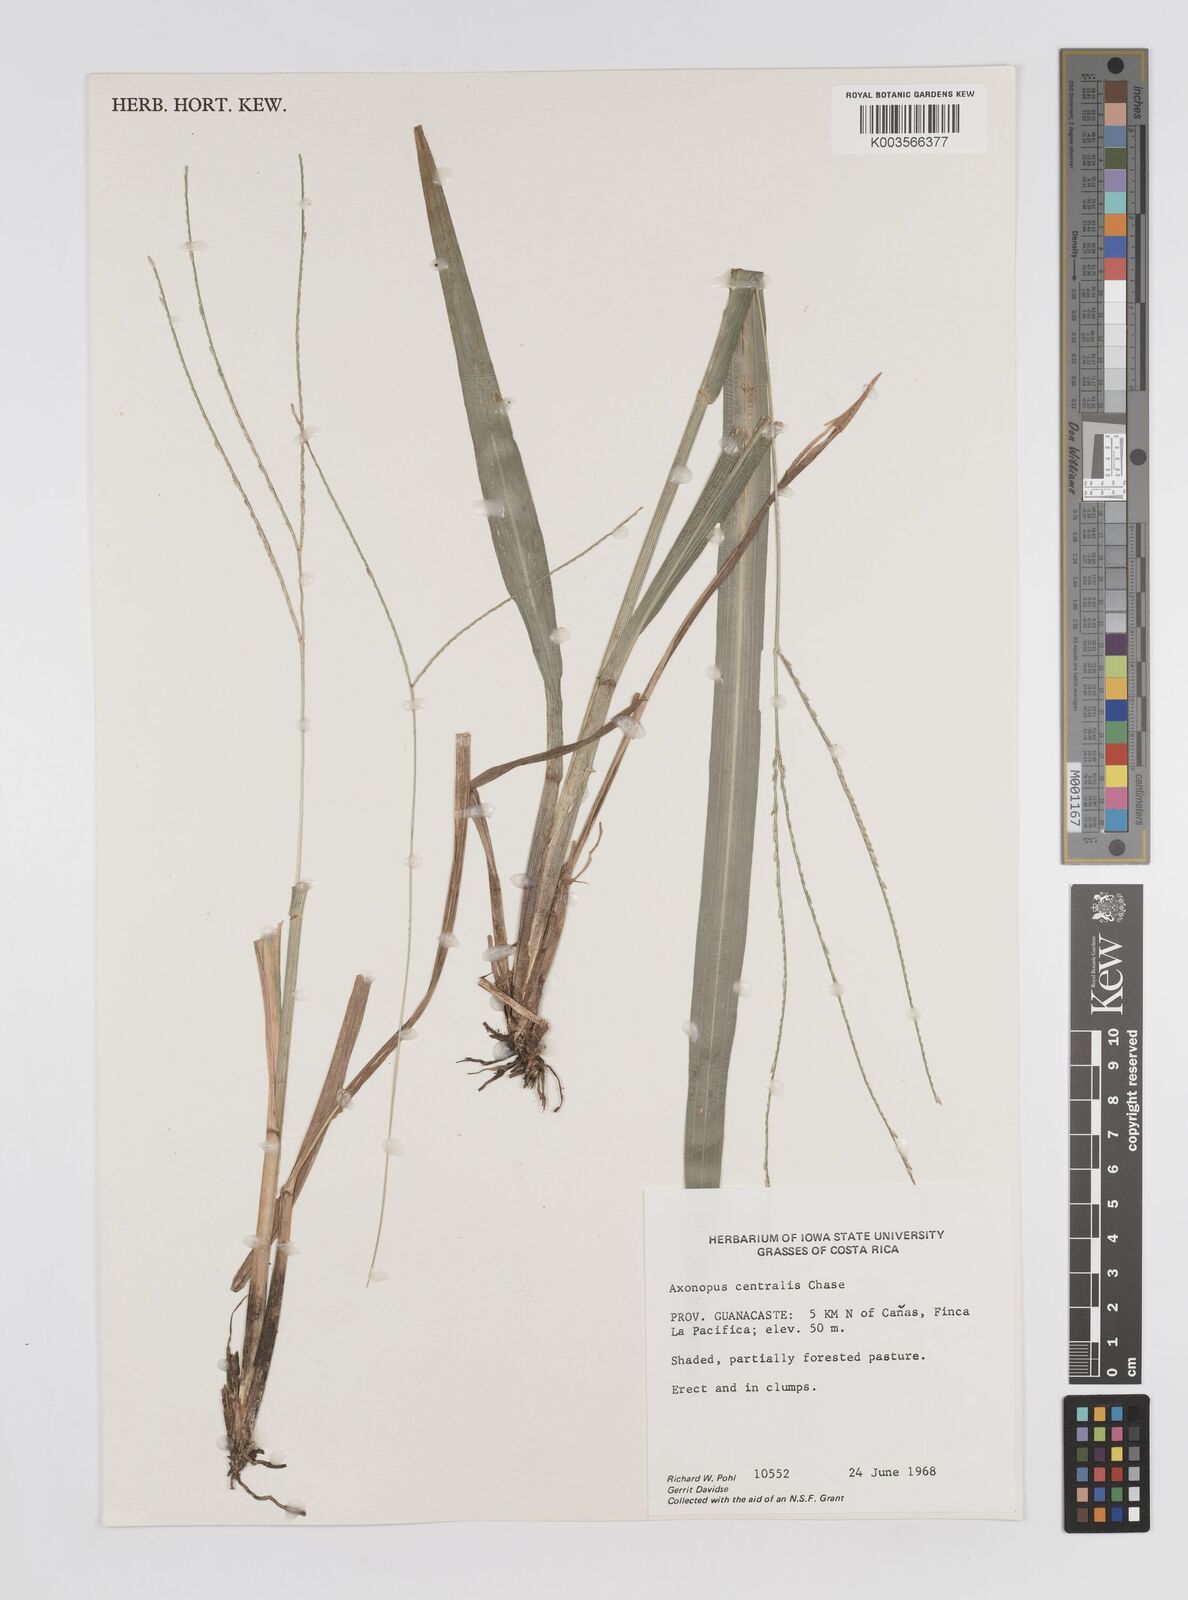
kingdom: Plantae
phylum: Tracheophyta
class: Liliopsida
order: Poales
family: Poaceae
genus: Axonopus
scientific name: Axonopus centralis
